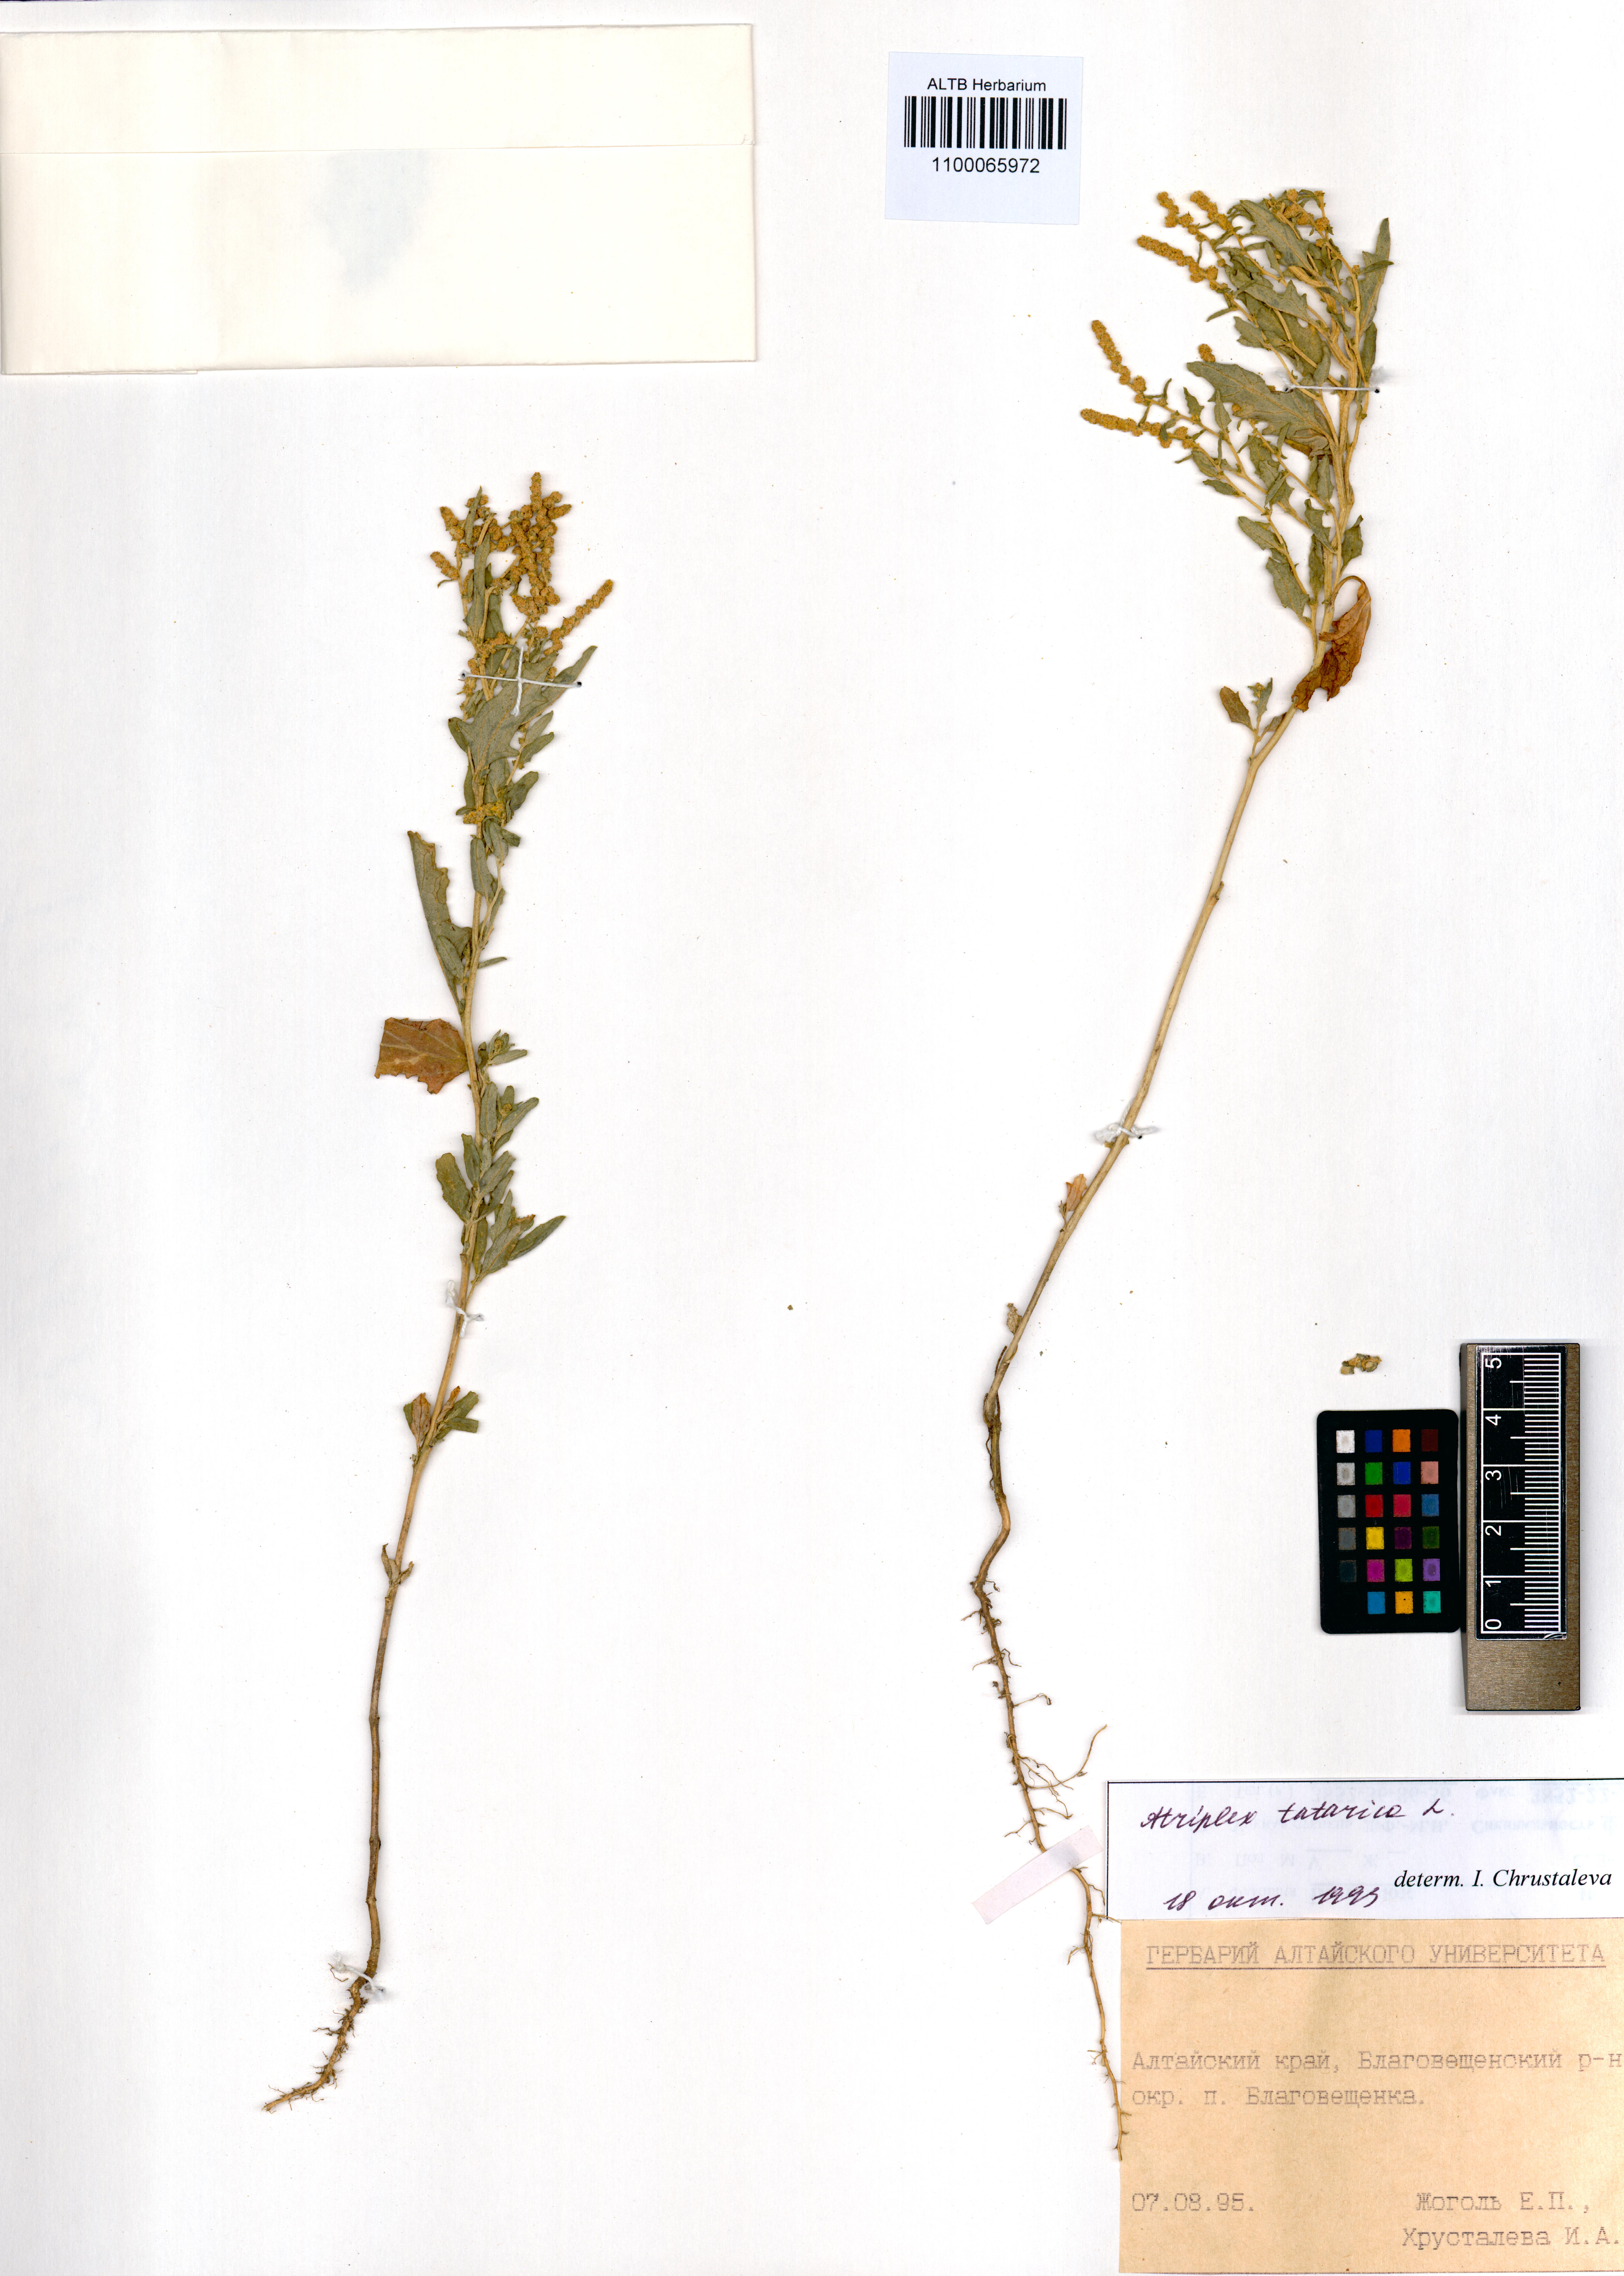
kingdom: Plantae
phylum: Tracheophyta
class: Magnoliopsida
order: Caryophyllales
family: Amaranthaceae
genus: Atriplex
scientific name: Atriplex tatarica
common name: Tatarian orache
